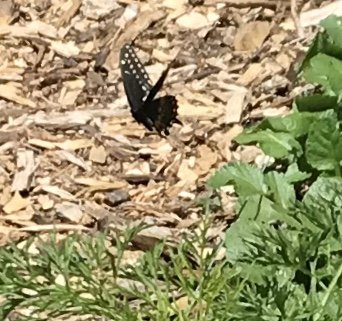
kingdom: Animalia
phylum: Arthropoda
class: Insecta
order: Lepidoptera
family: Papilionidae
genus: Papilio
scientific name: Papilio polyxenes
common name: Black Swallowtail
